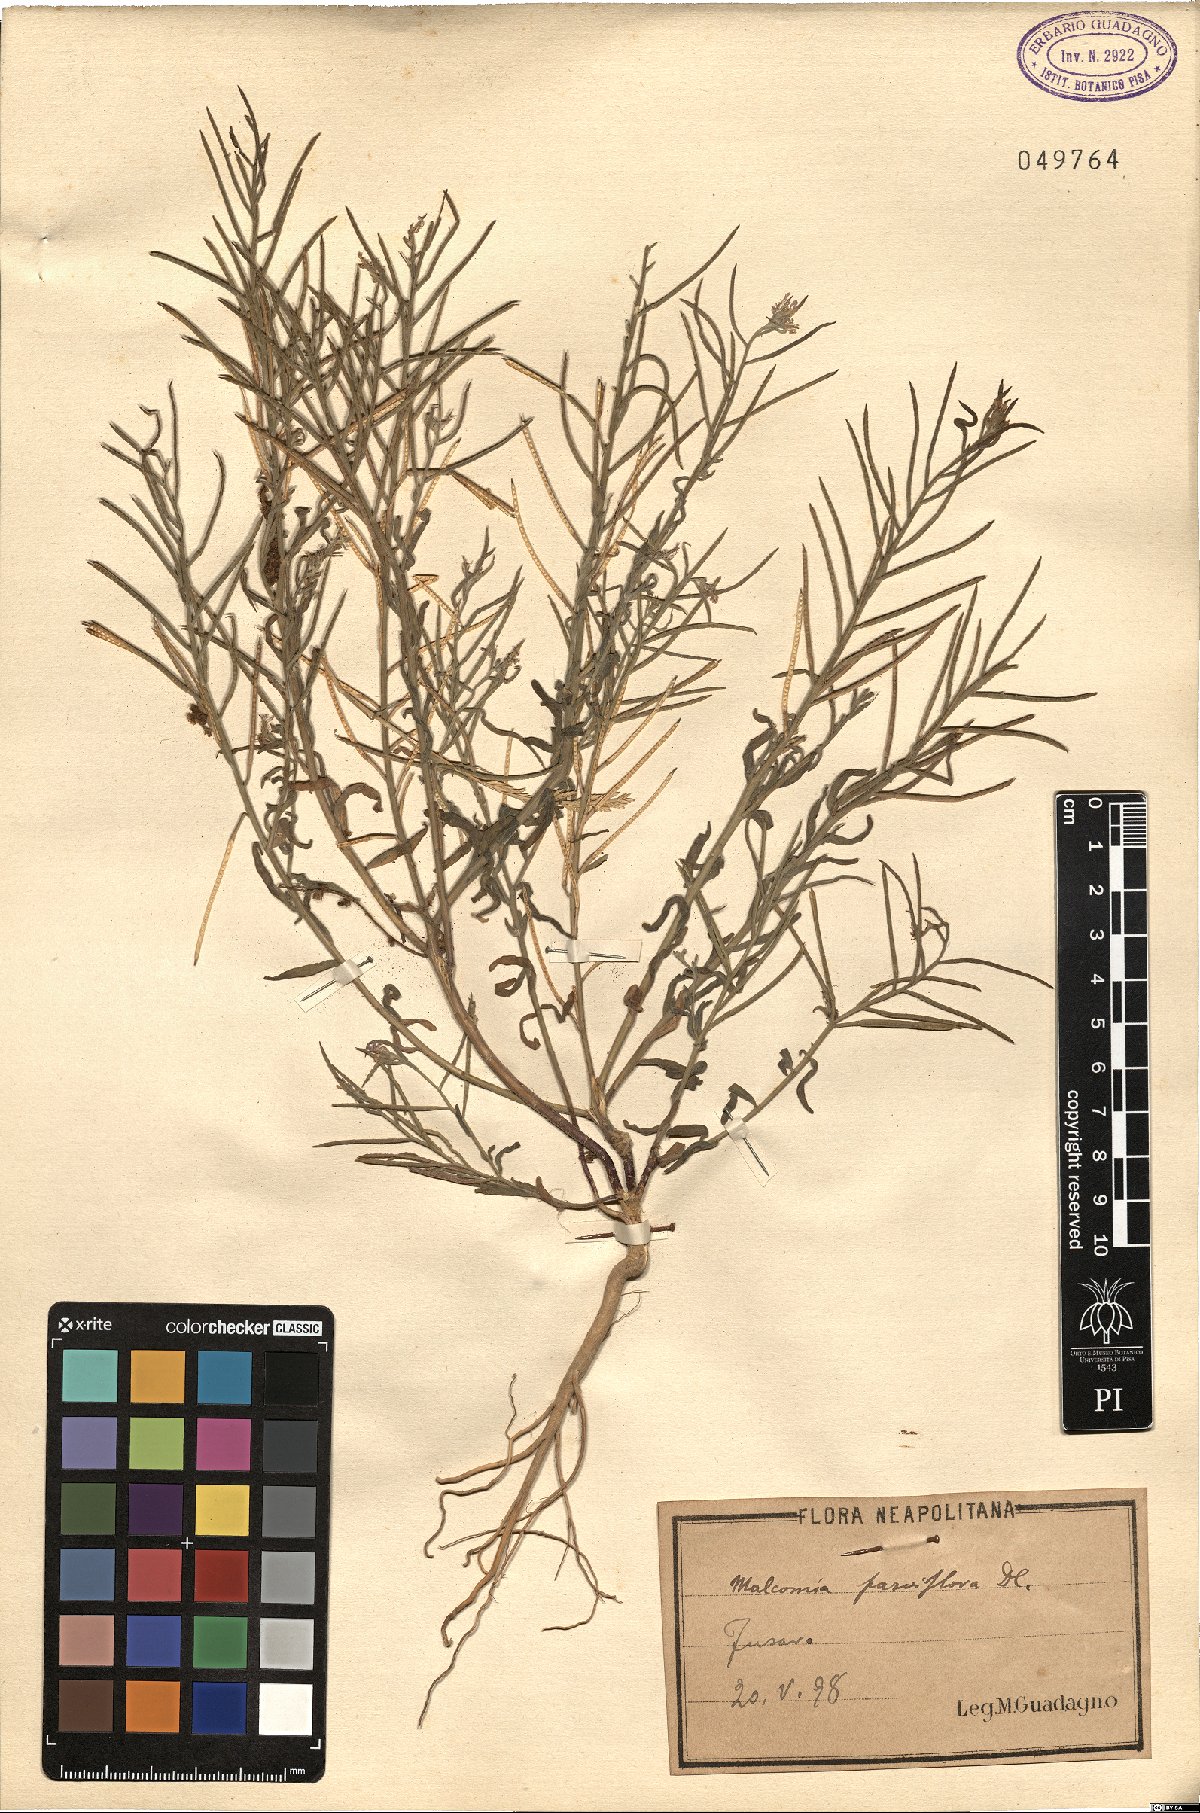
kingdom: Plantae
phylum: Tracheophyta
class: Magnoliopsida
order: Brassicales
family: Brassicaceae
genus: Marcuskochia
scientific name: Marcuskochia ramosissima
